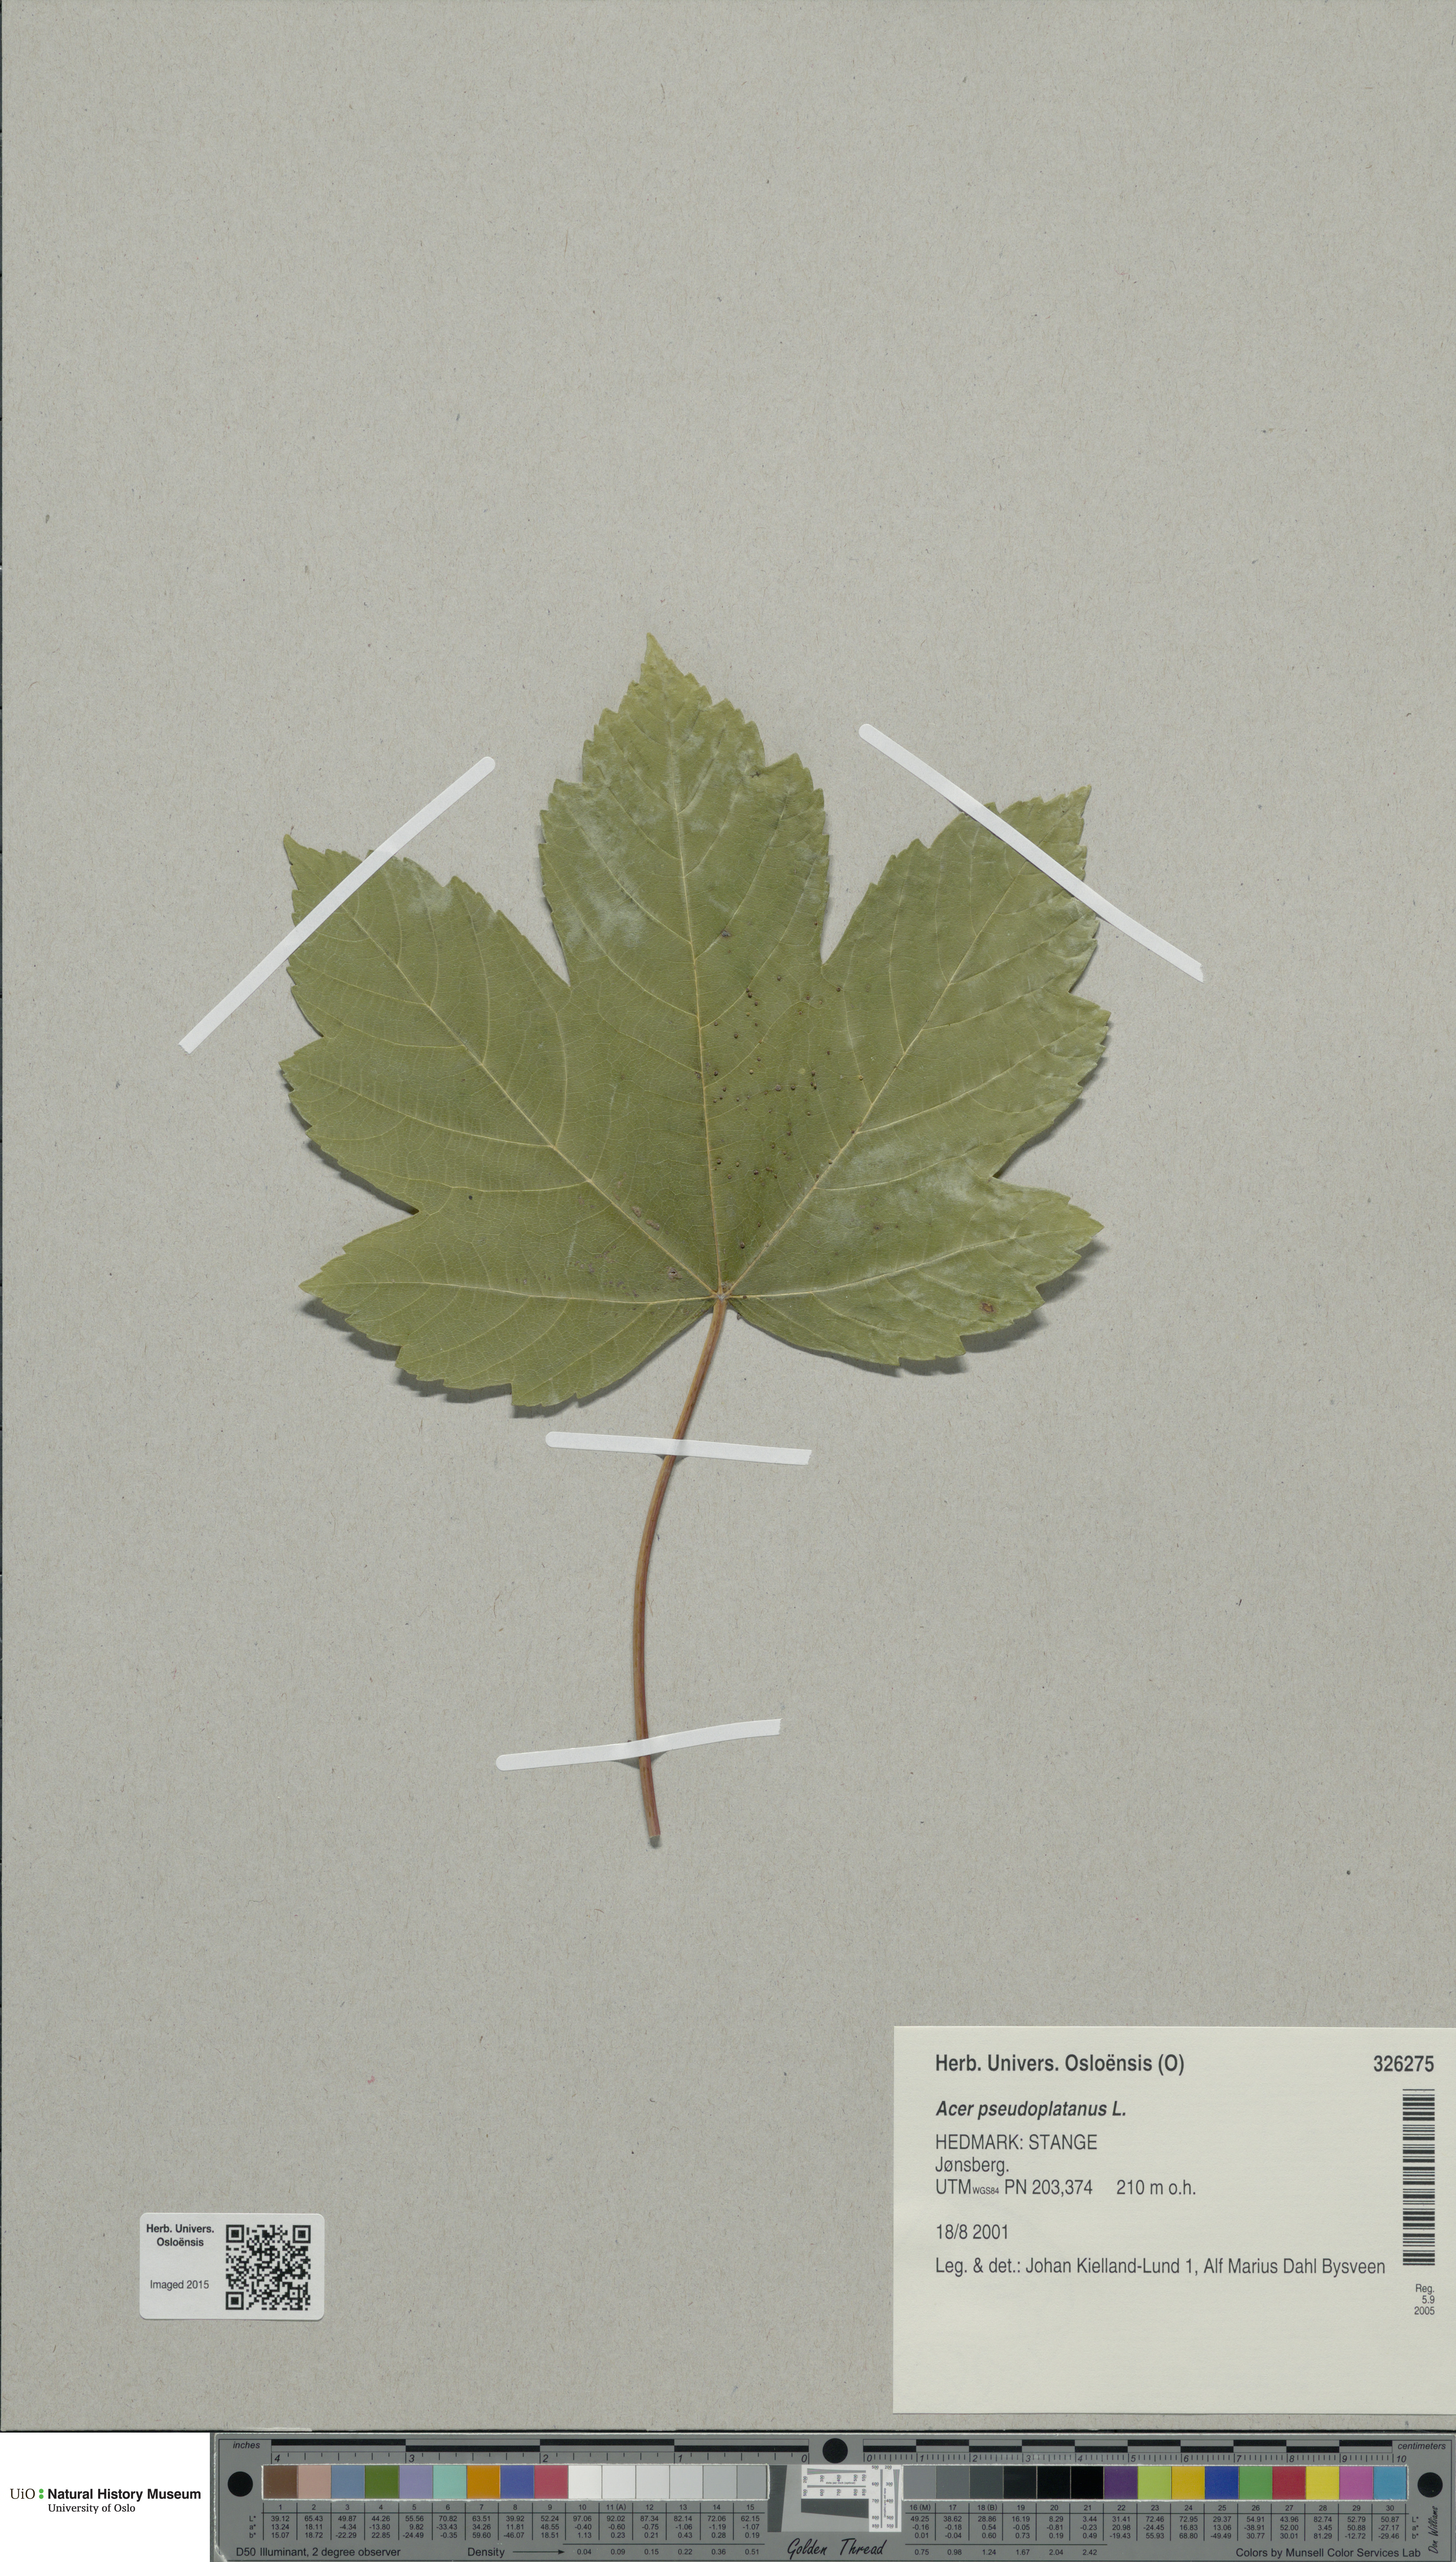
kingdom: Plantae
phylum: Tracheophyta
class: Magnoliopsida
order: Sapindales
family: Sapindaceae
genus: Acer
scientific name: Acer pseudoplatanus
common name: Sycamore
